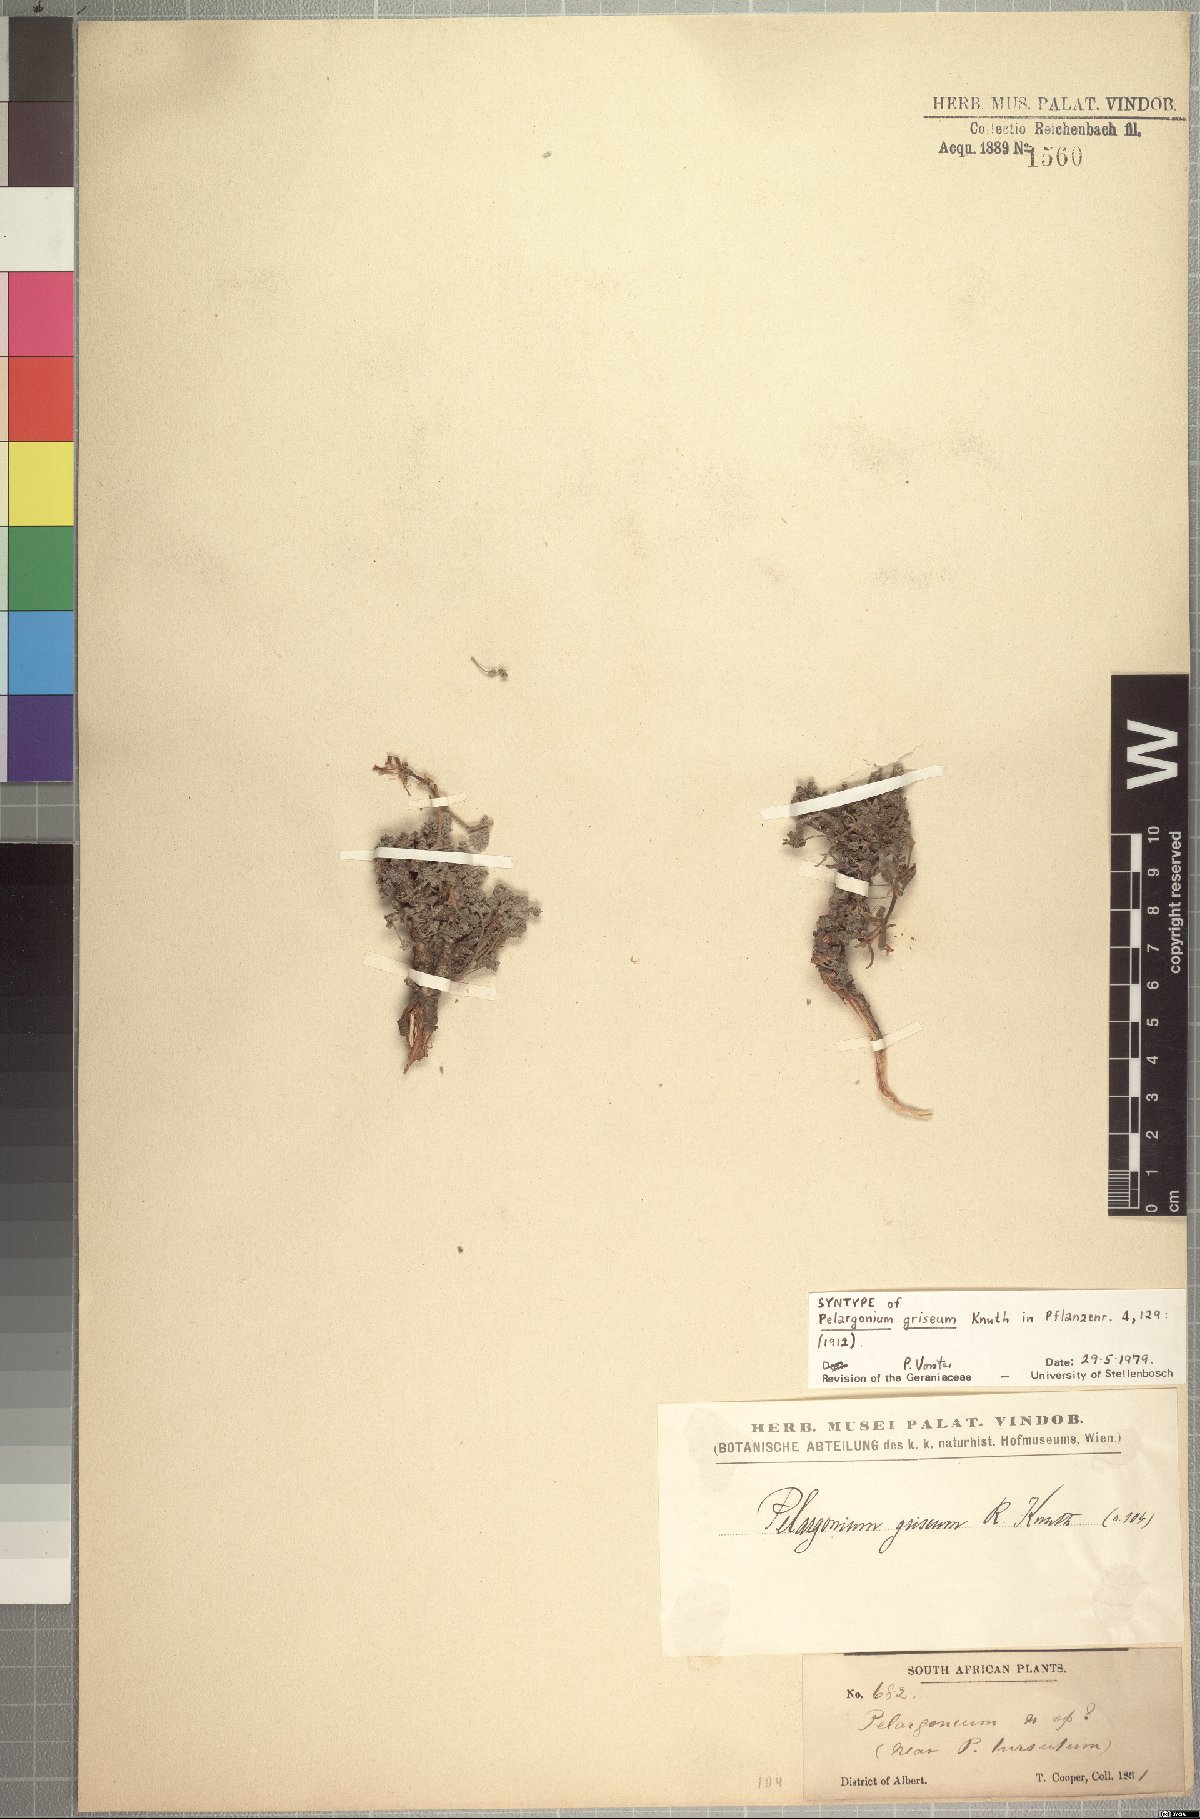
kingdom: Plantae
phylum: Tracheophyta
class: Magnoliopsida
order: Geraniales
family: Geraniaceae
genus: Pelargonium
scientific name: Pelargonium griseum
